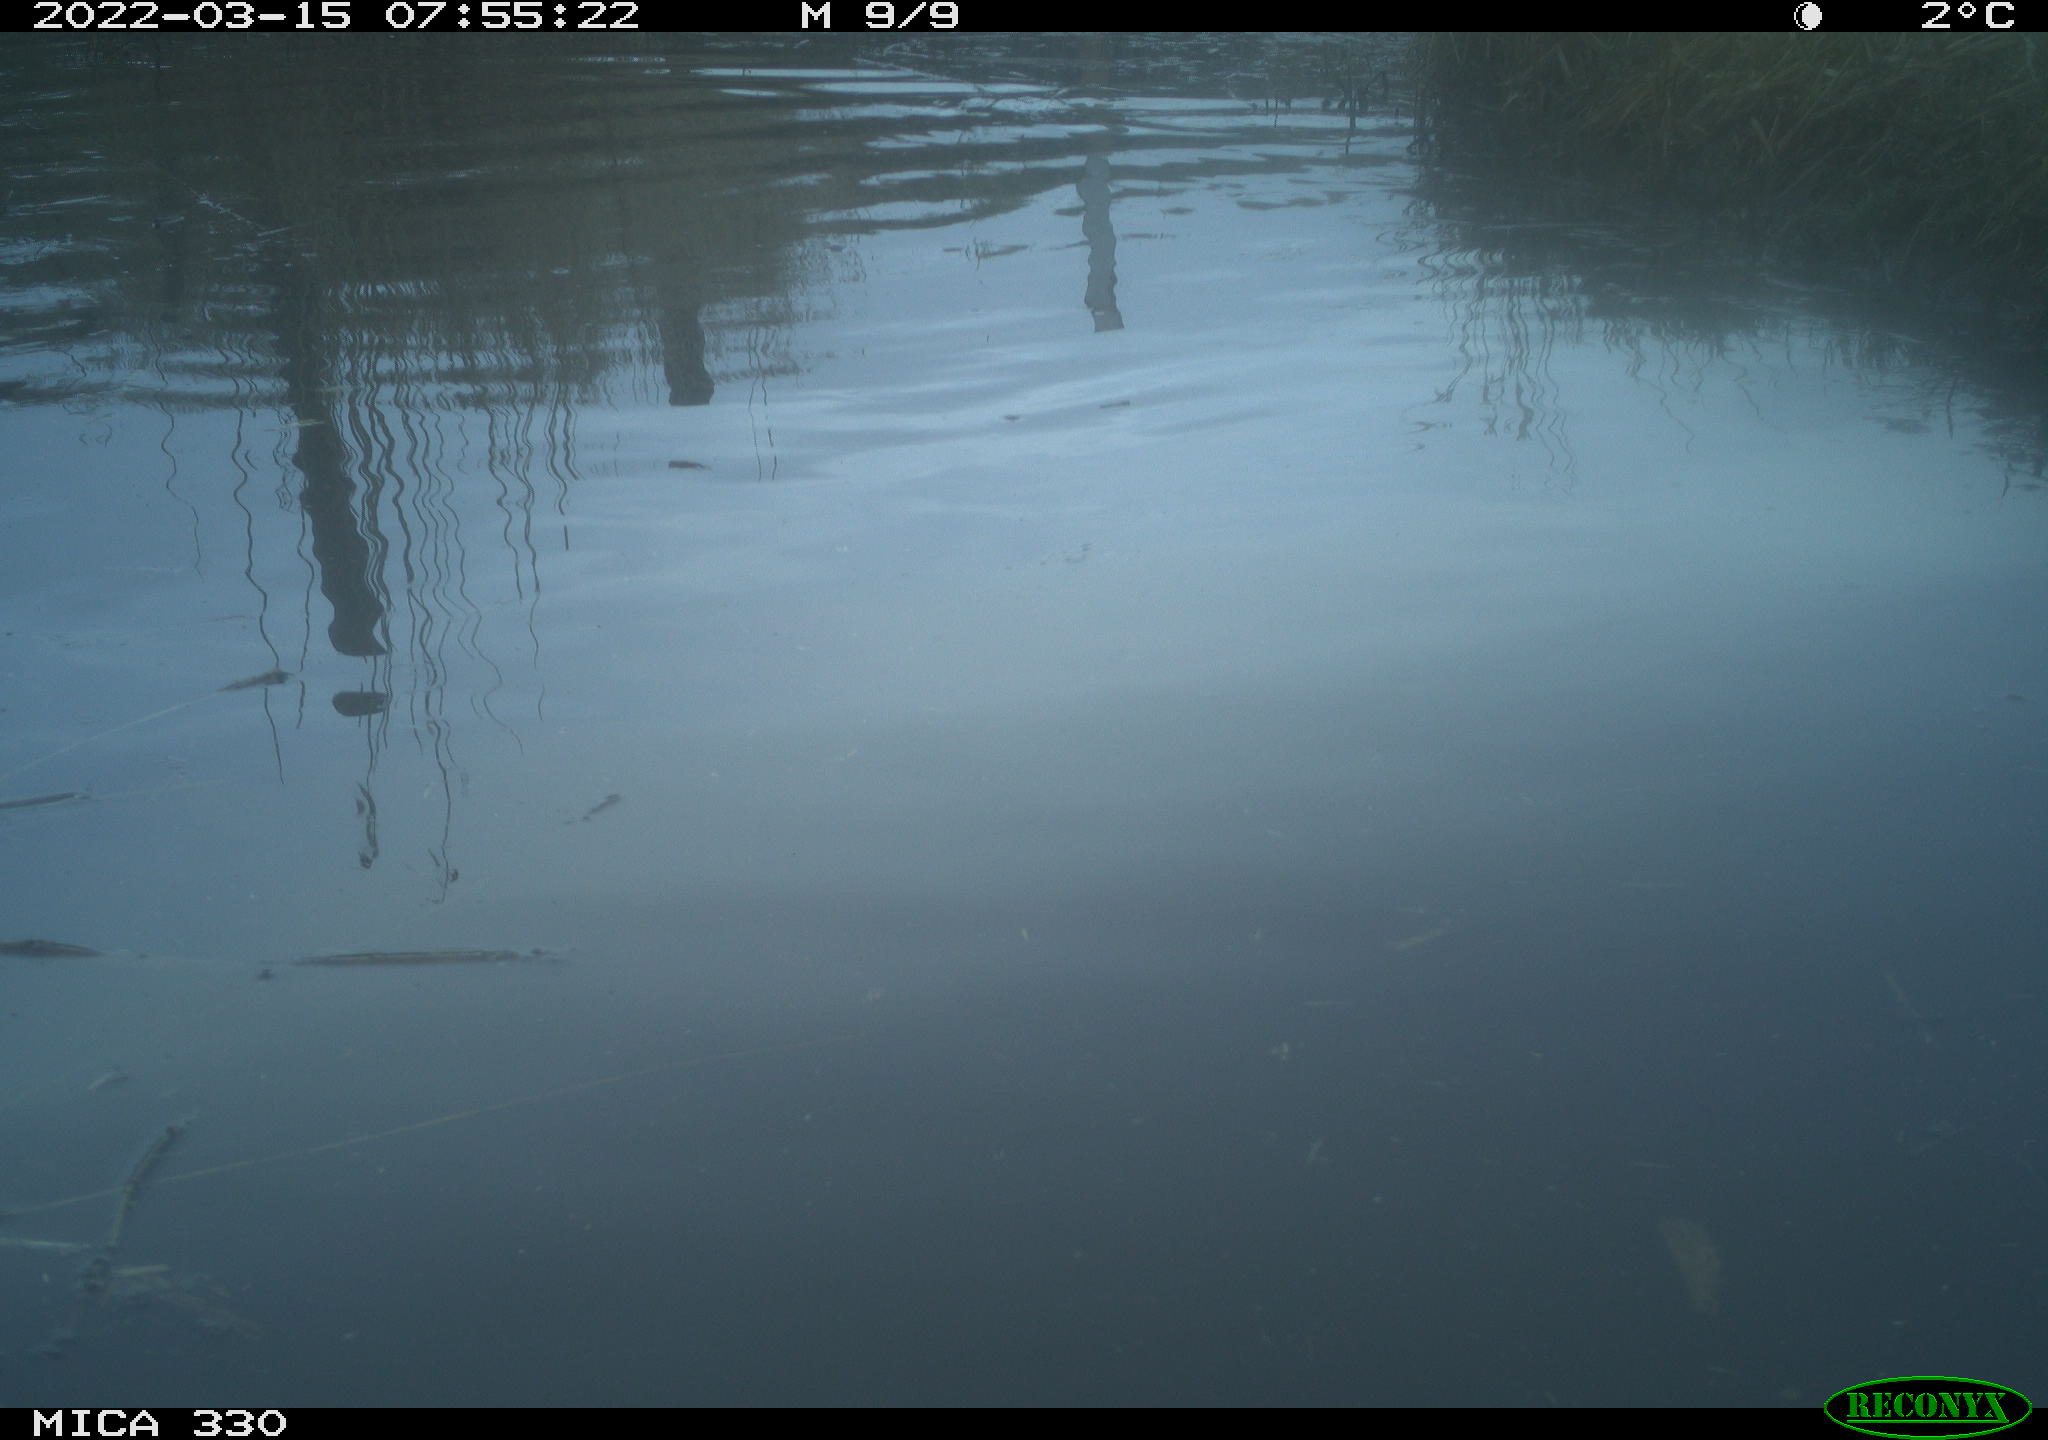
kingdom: Animalia
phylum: Chordata
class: Aves
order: Anseriformes
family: Anatidae
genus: Anas
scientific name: Anas platyrhynchos
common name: Mallard
